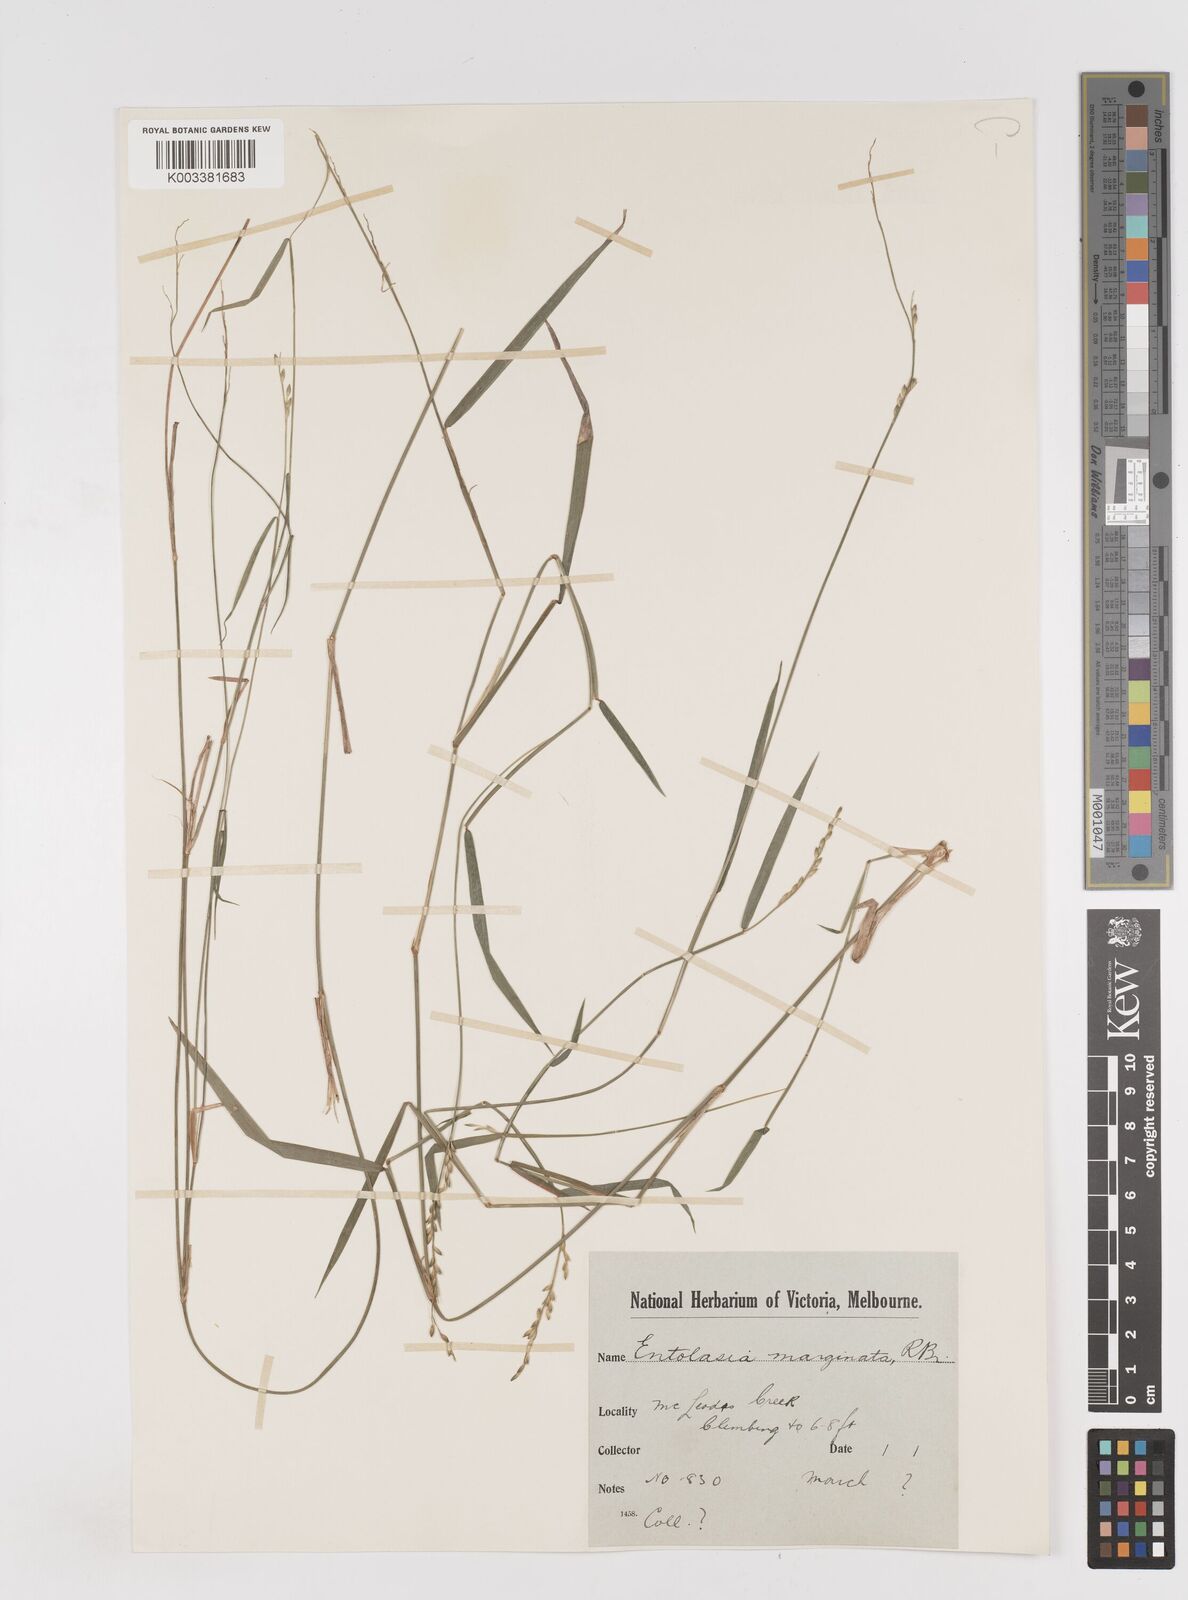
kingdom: Plantae
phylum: Tracheophyta
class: Liliopsida
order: Poales
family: Poaceae
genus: Entolasia
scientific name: Entolasia marginata
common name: Australian panicgrass
